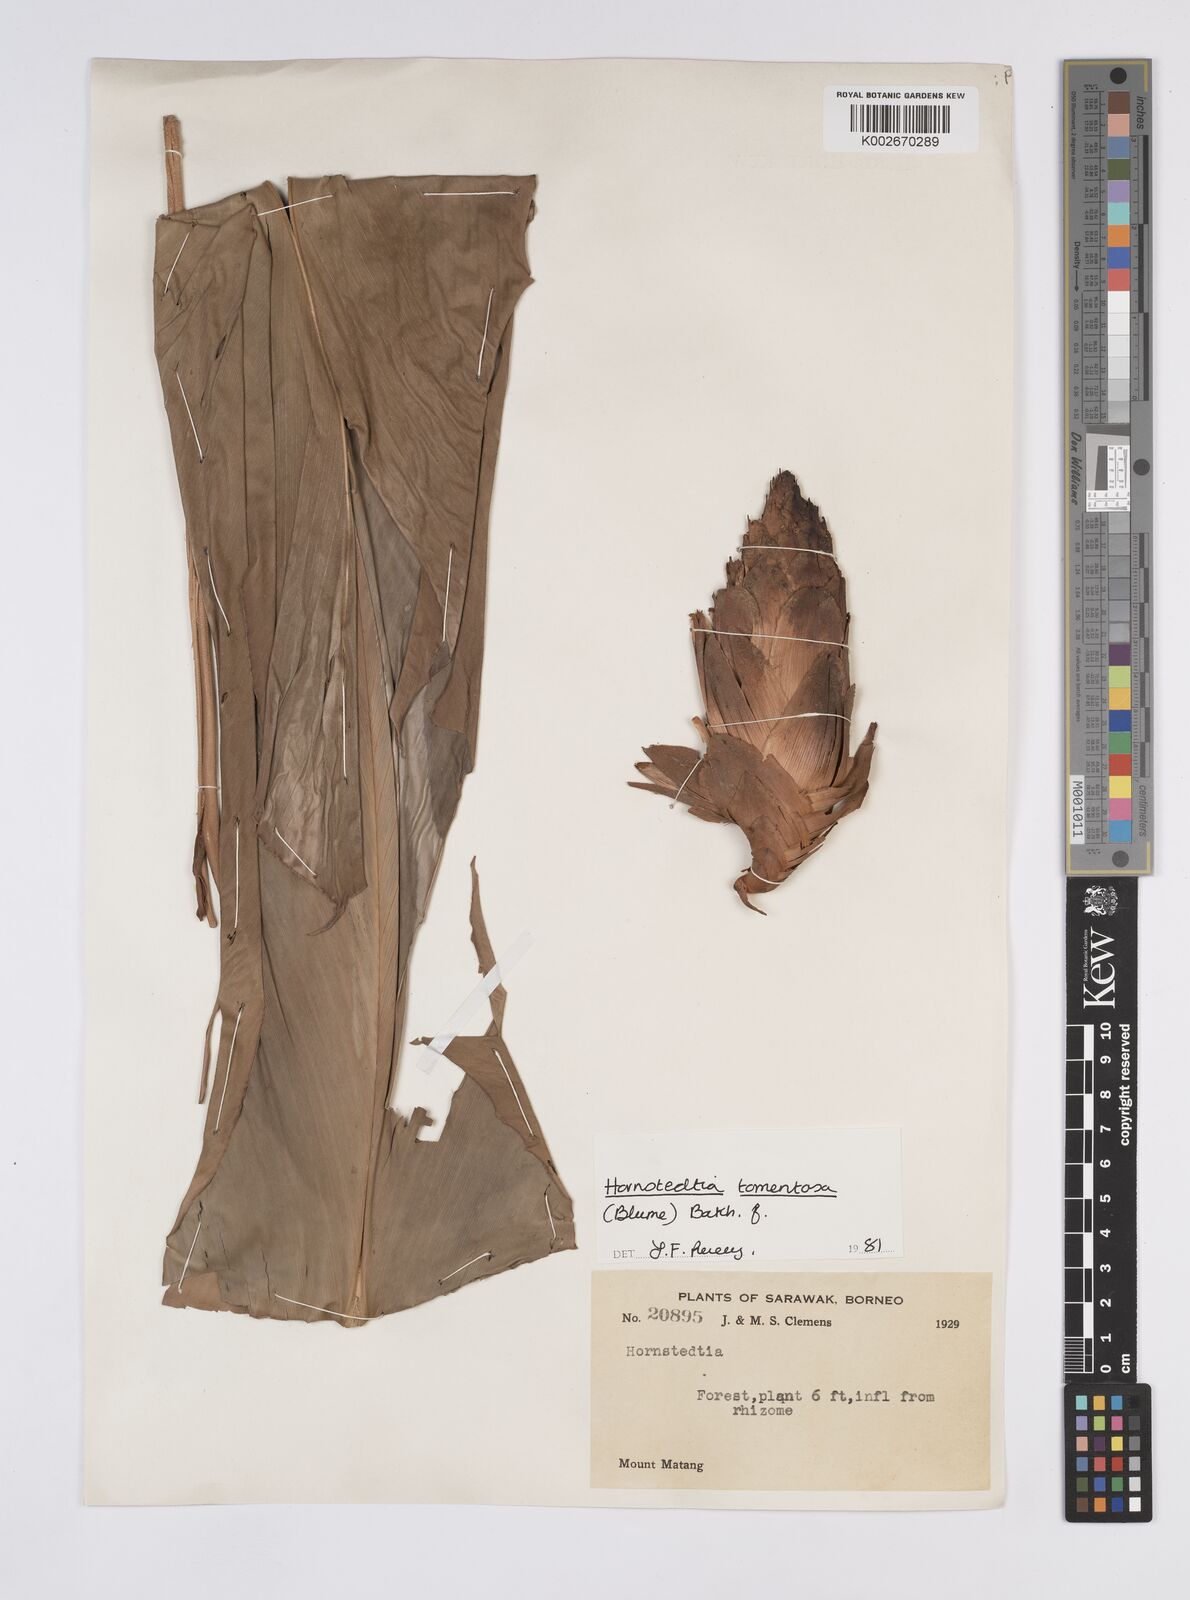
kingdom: Plantae
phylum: Tracheophyta
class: Liliopsida
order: Zingiberales
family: Zingiberaceae
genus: Hornstedtia
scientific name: Hornstedtia tomentosa
